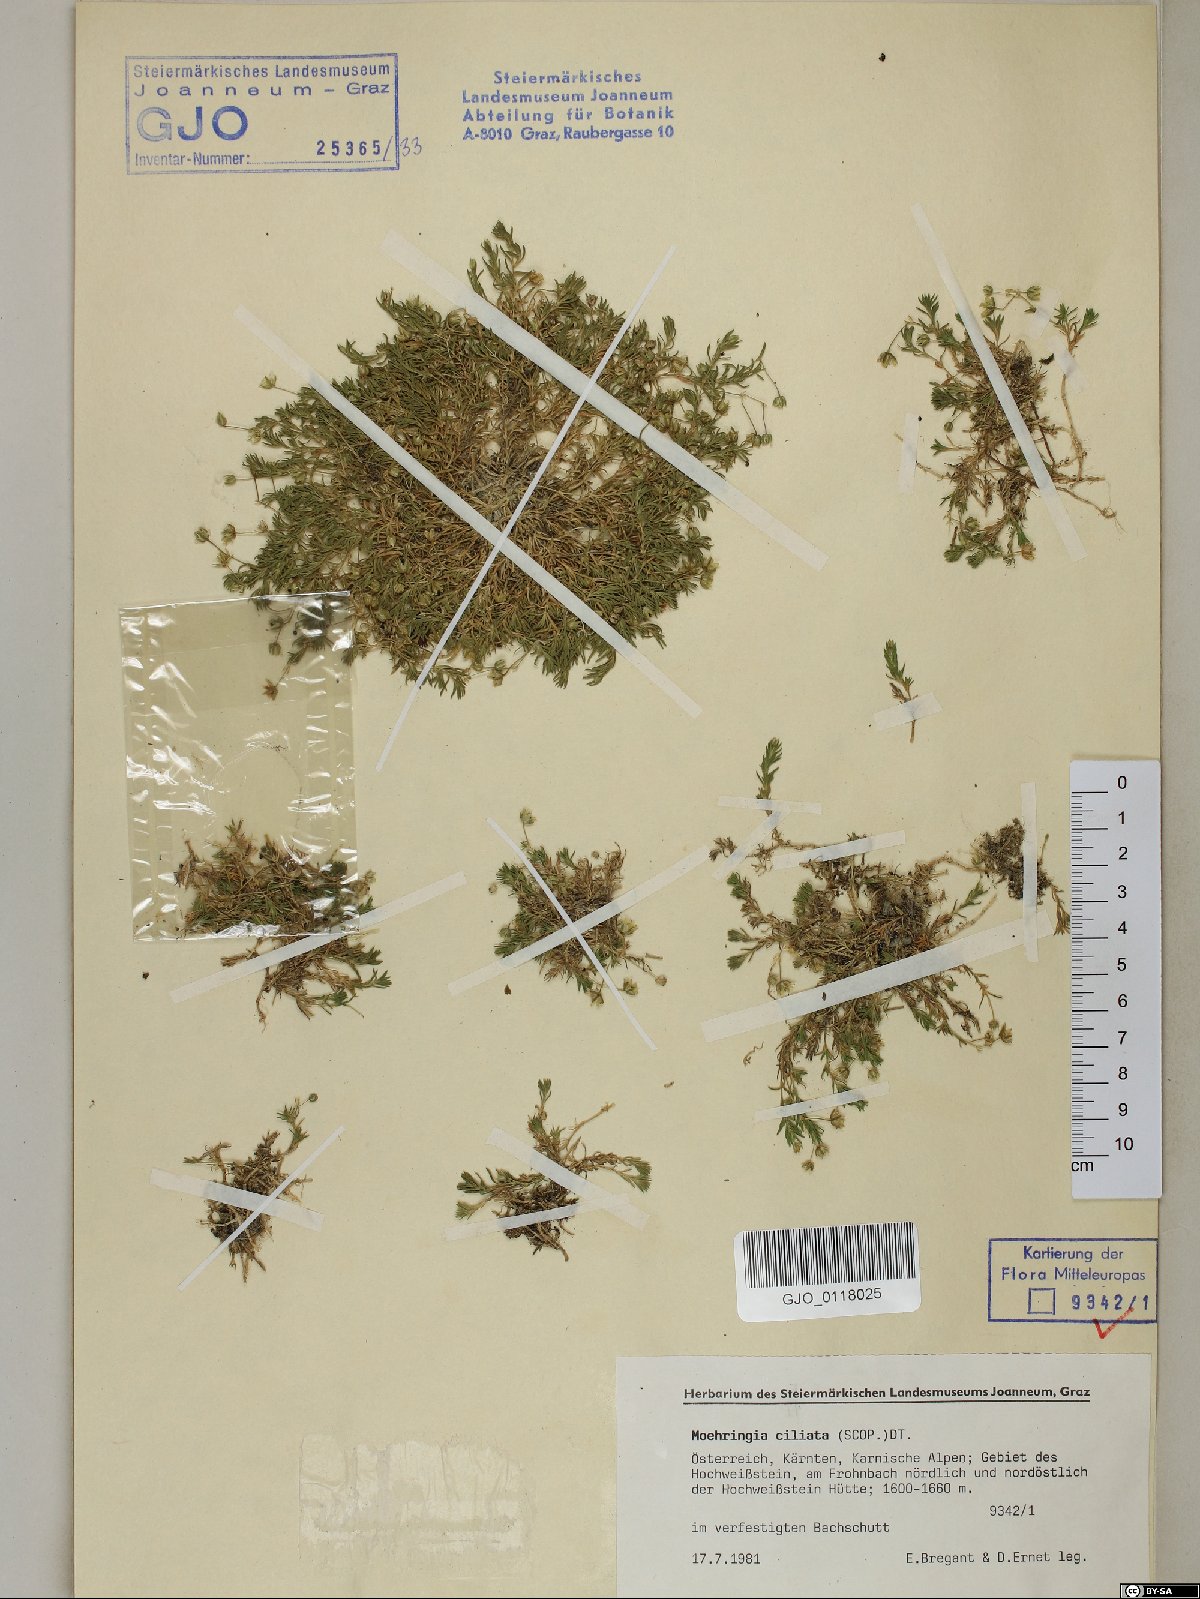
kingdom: Plantae
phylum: Tracheophyta
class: Magnoliopsida
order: Caryophyllales
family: Caryophyllaceae
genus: Moehringia
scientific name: Moehringia ciliata
